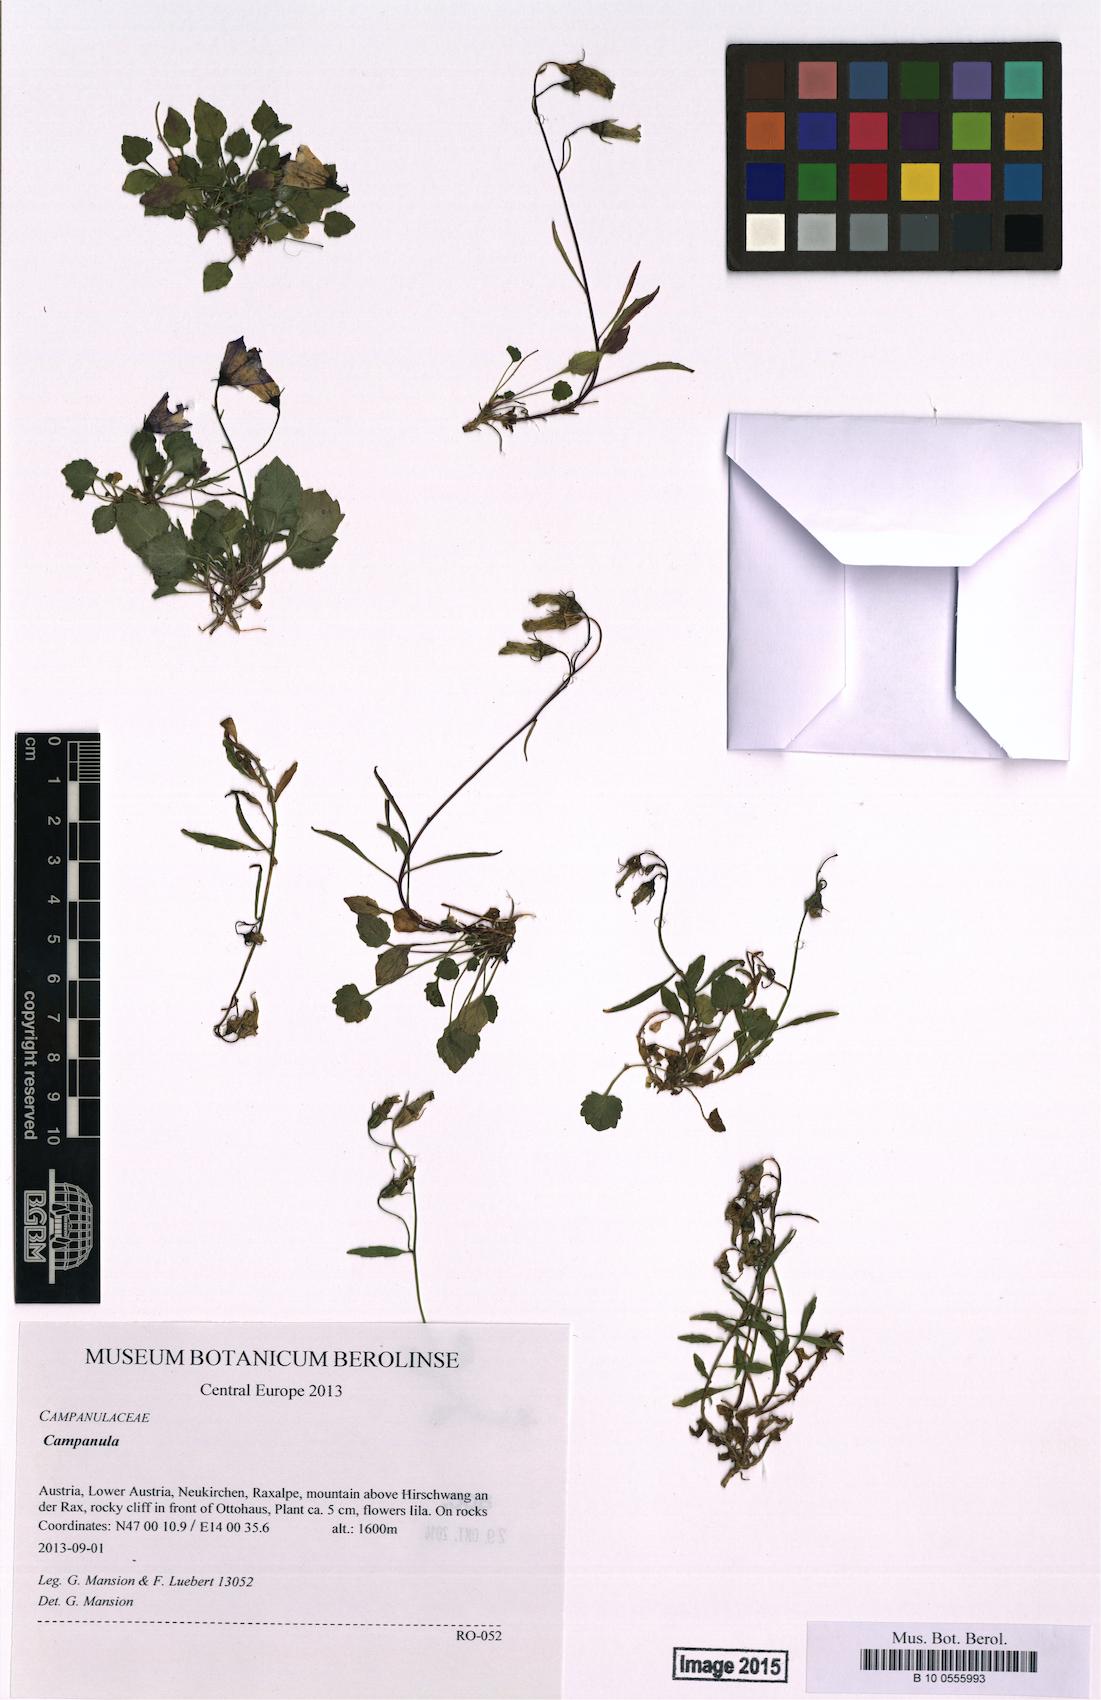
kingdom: Plantae
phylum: Tracheophyta
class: Magnoliopsida
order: Asterales
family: Campanulaceae
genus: Campanula
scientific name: Campanula
